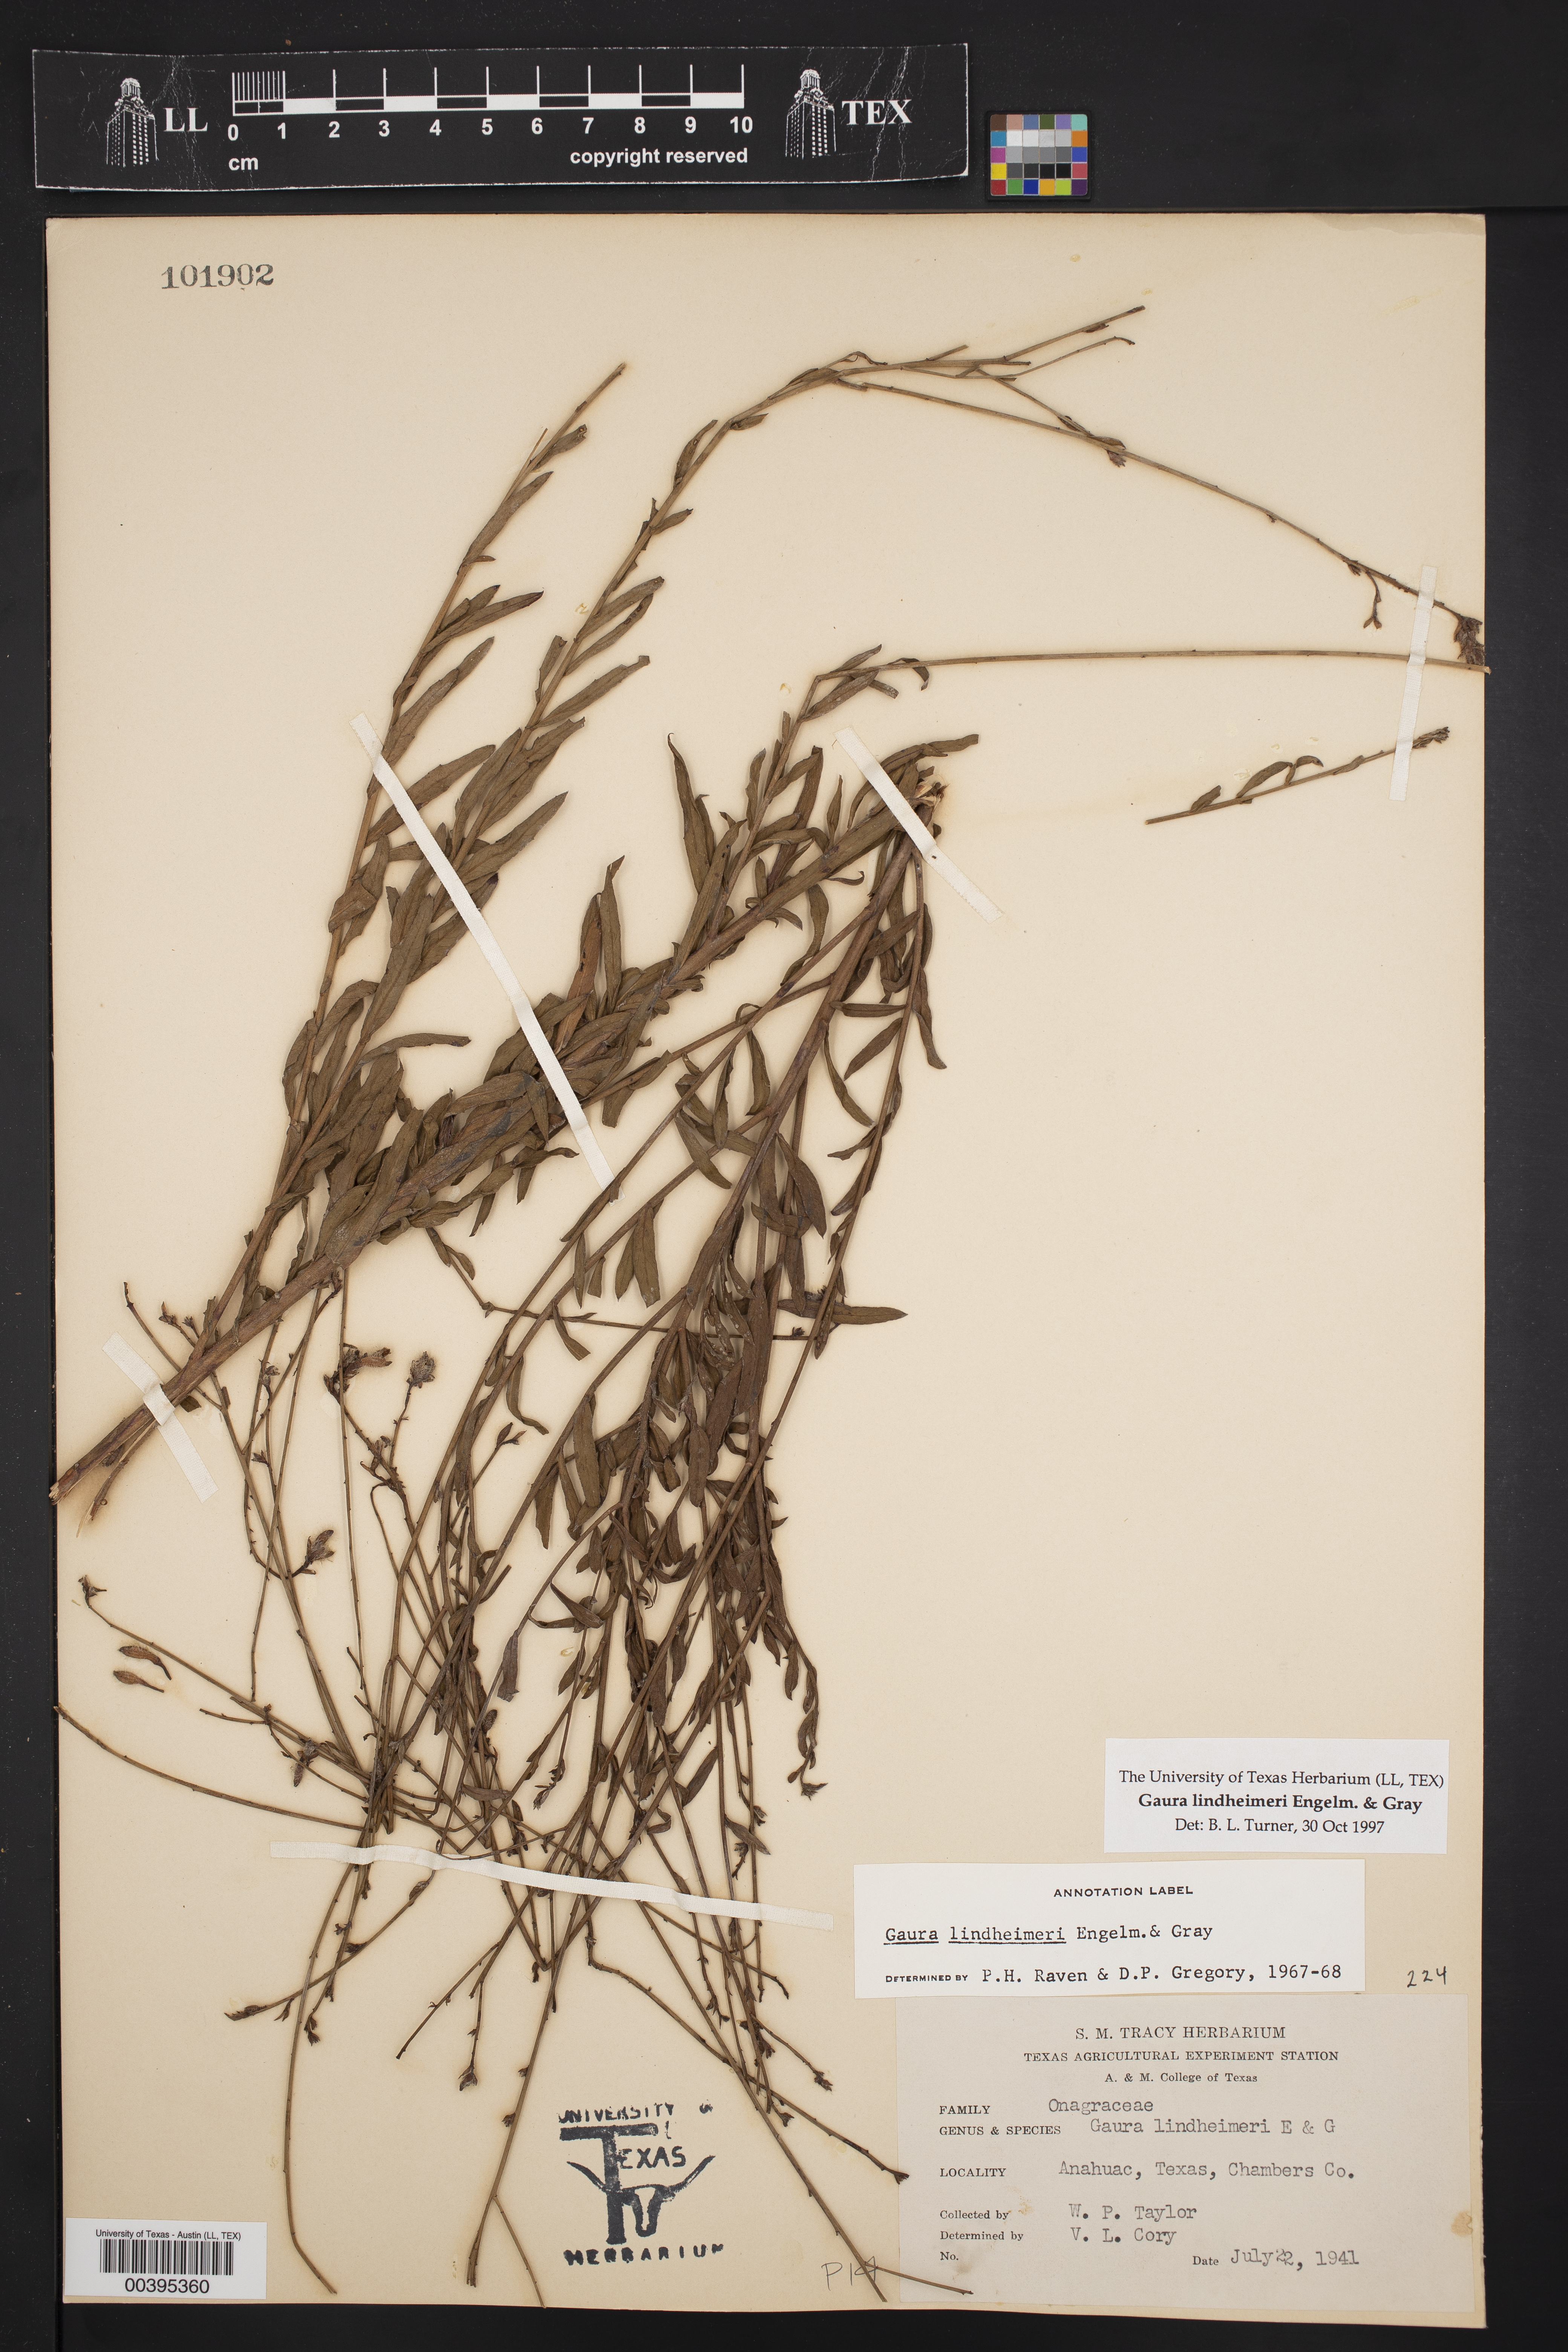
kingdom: Plantae
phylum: Tracheophyta
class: Magnoliopsida
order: Myrtales
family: Onagraceae
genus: Oenothera
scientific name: Oenothera lindheimeri
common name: Lindheimer's beeblossom
